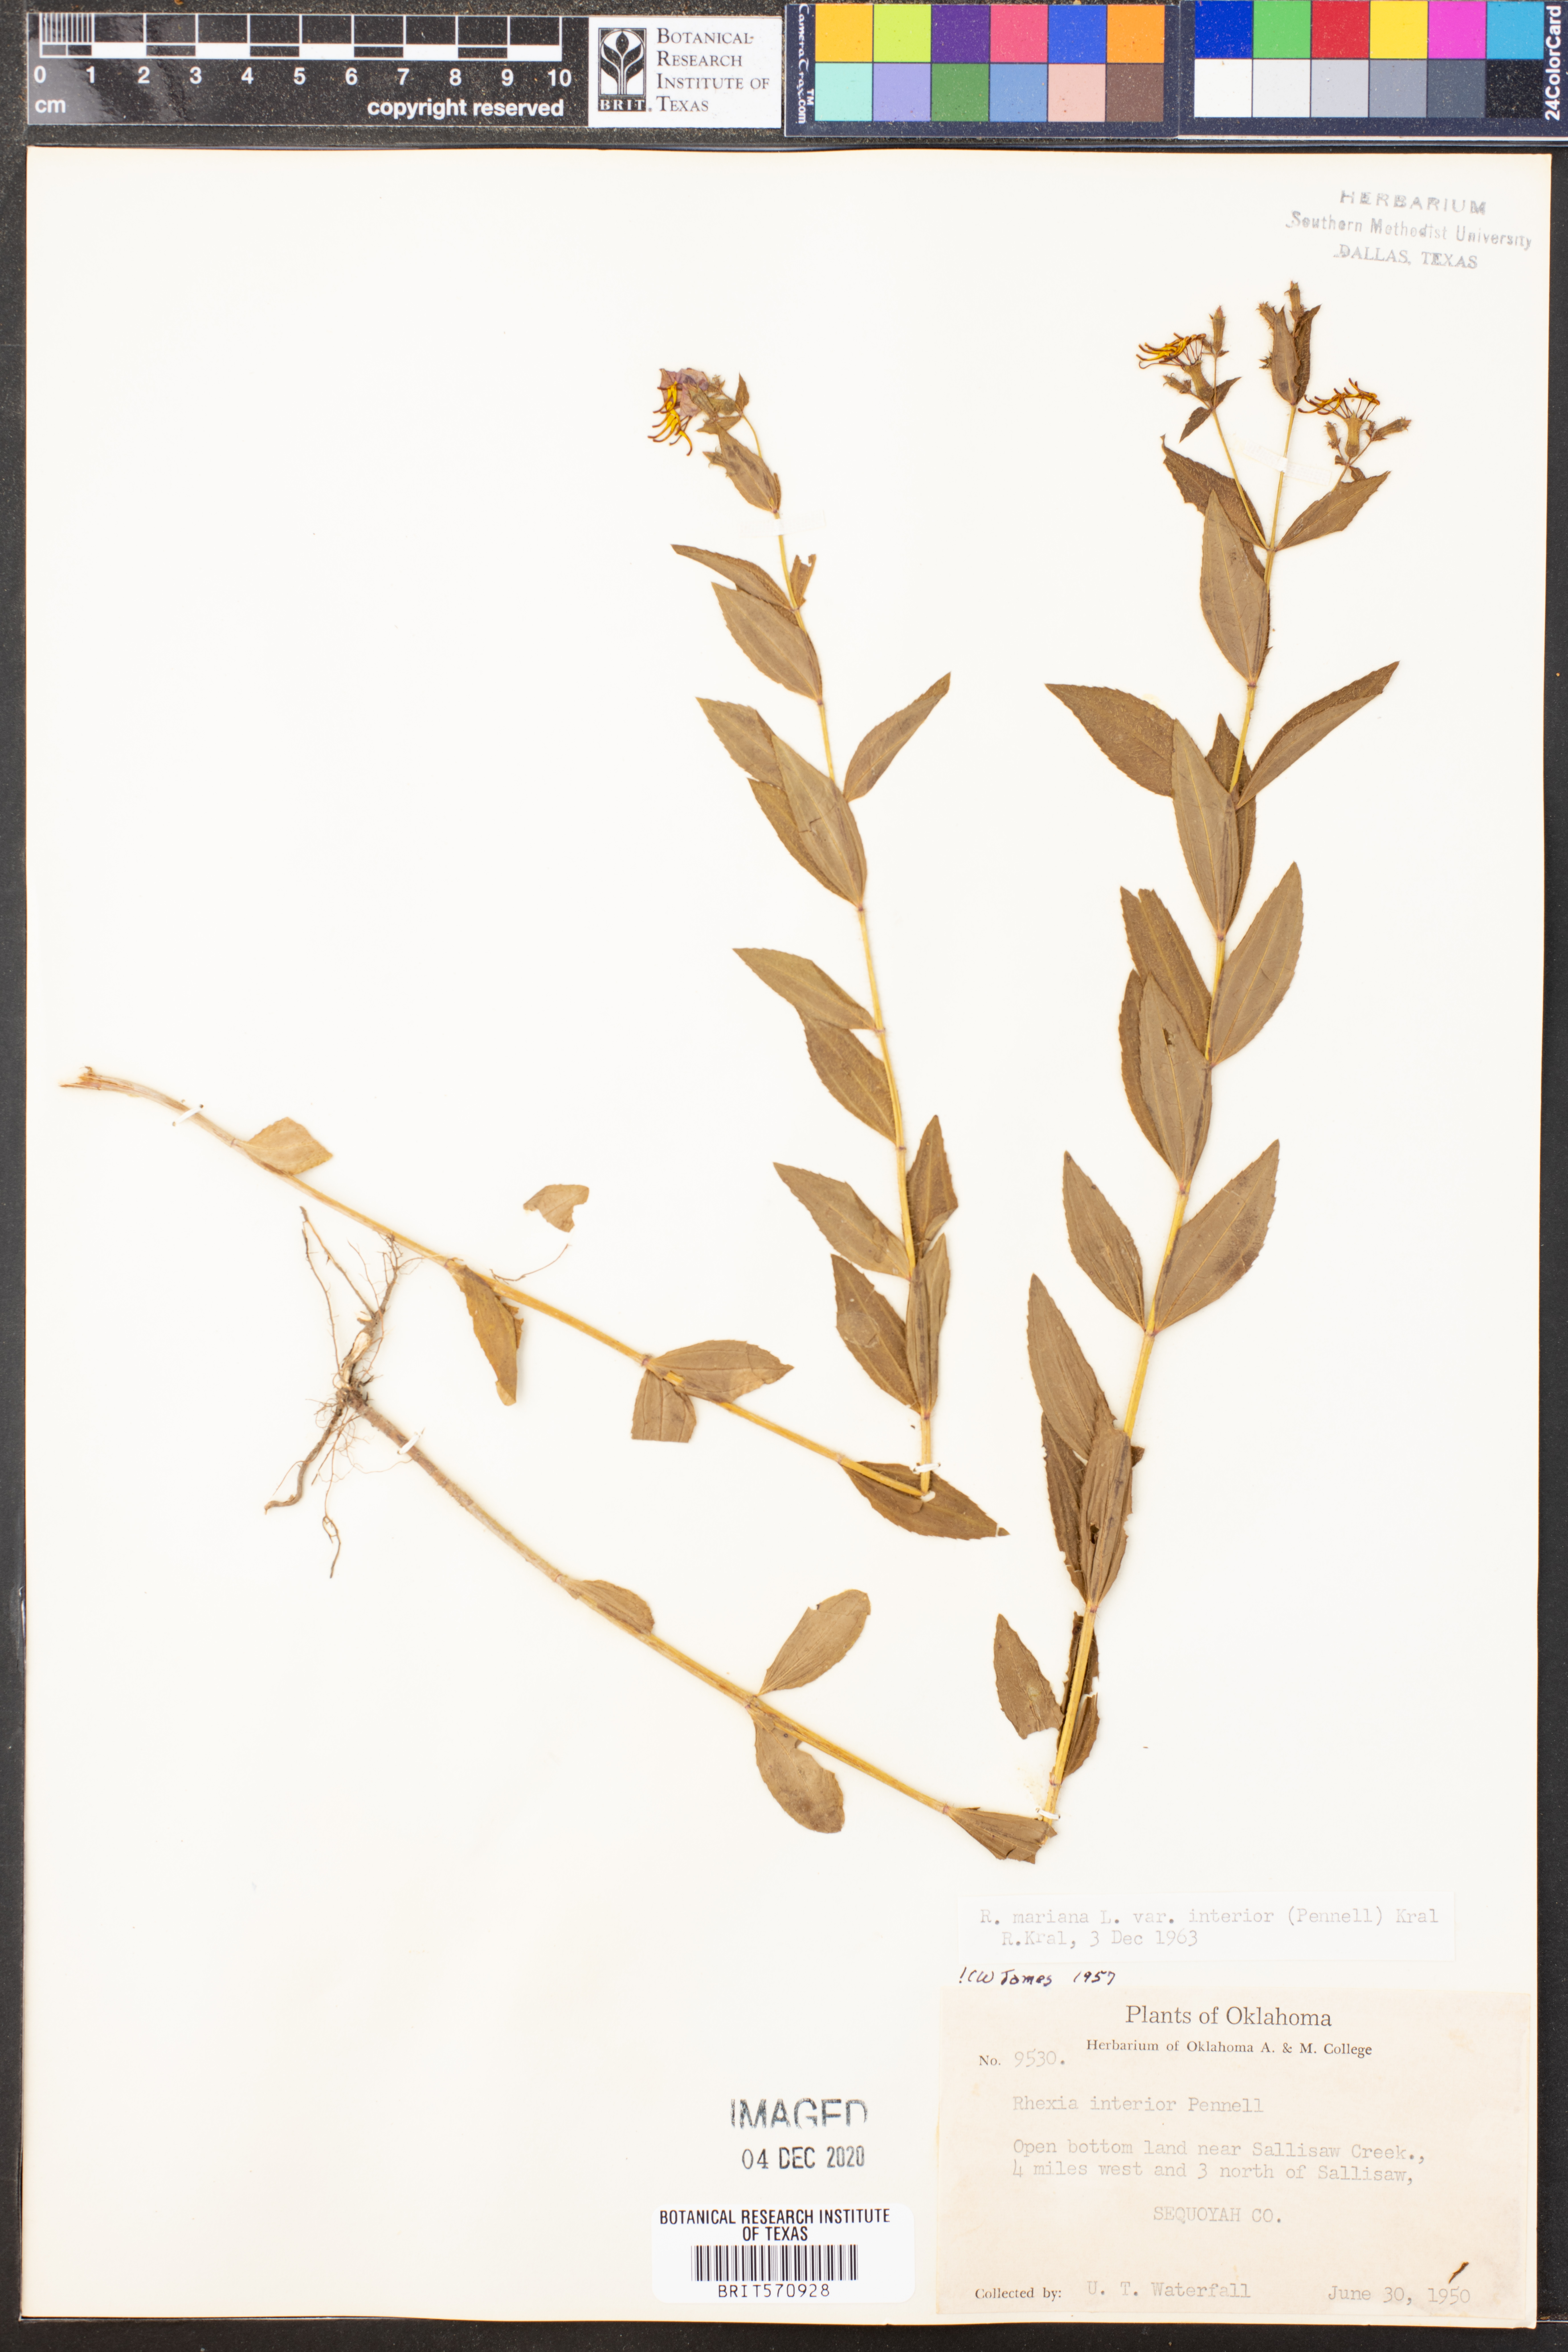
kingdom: Plantae
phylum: Tracheophyta
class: Magnoliopsida
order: Myrtales
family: Melastomataceae
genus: Rhexia
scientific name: Rhexia interior
